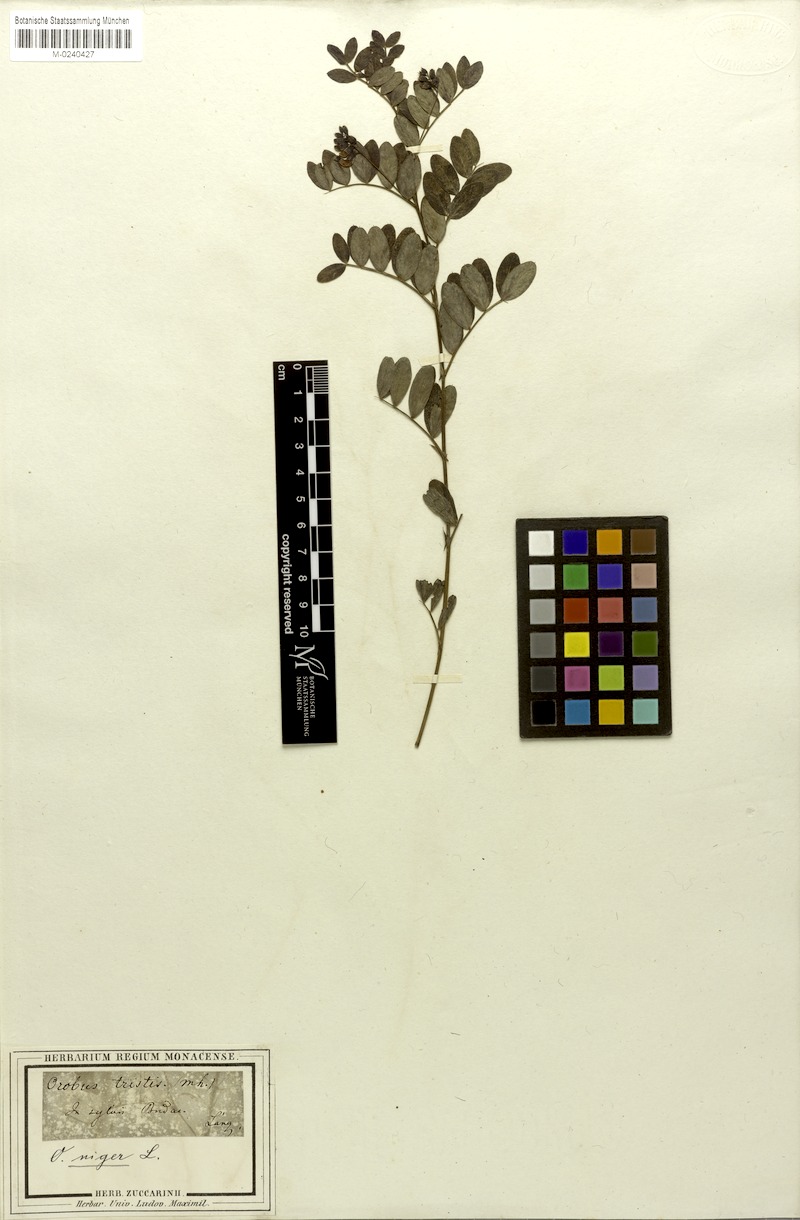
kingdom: Plantae
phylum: Tracheophyta
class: Magnoliopsida
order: Fabales
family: Fabaceae
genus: Lathyrus
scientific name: Lathyrus niger
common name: Black pea
